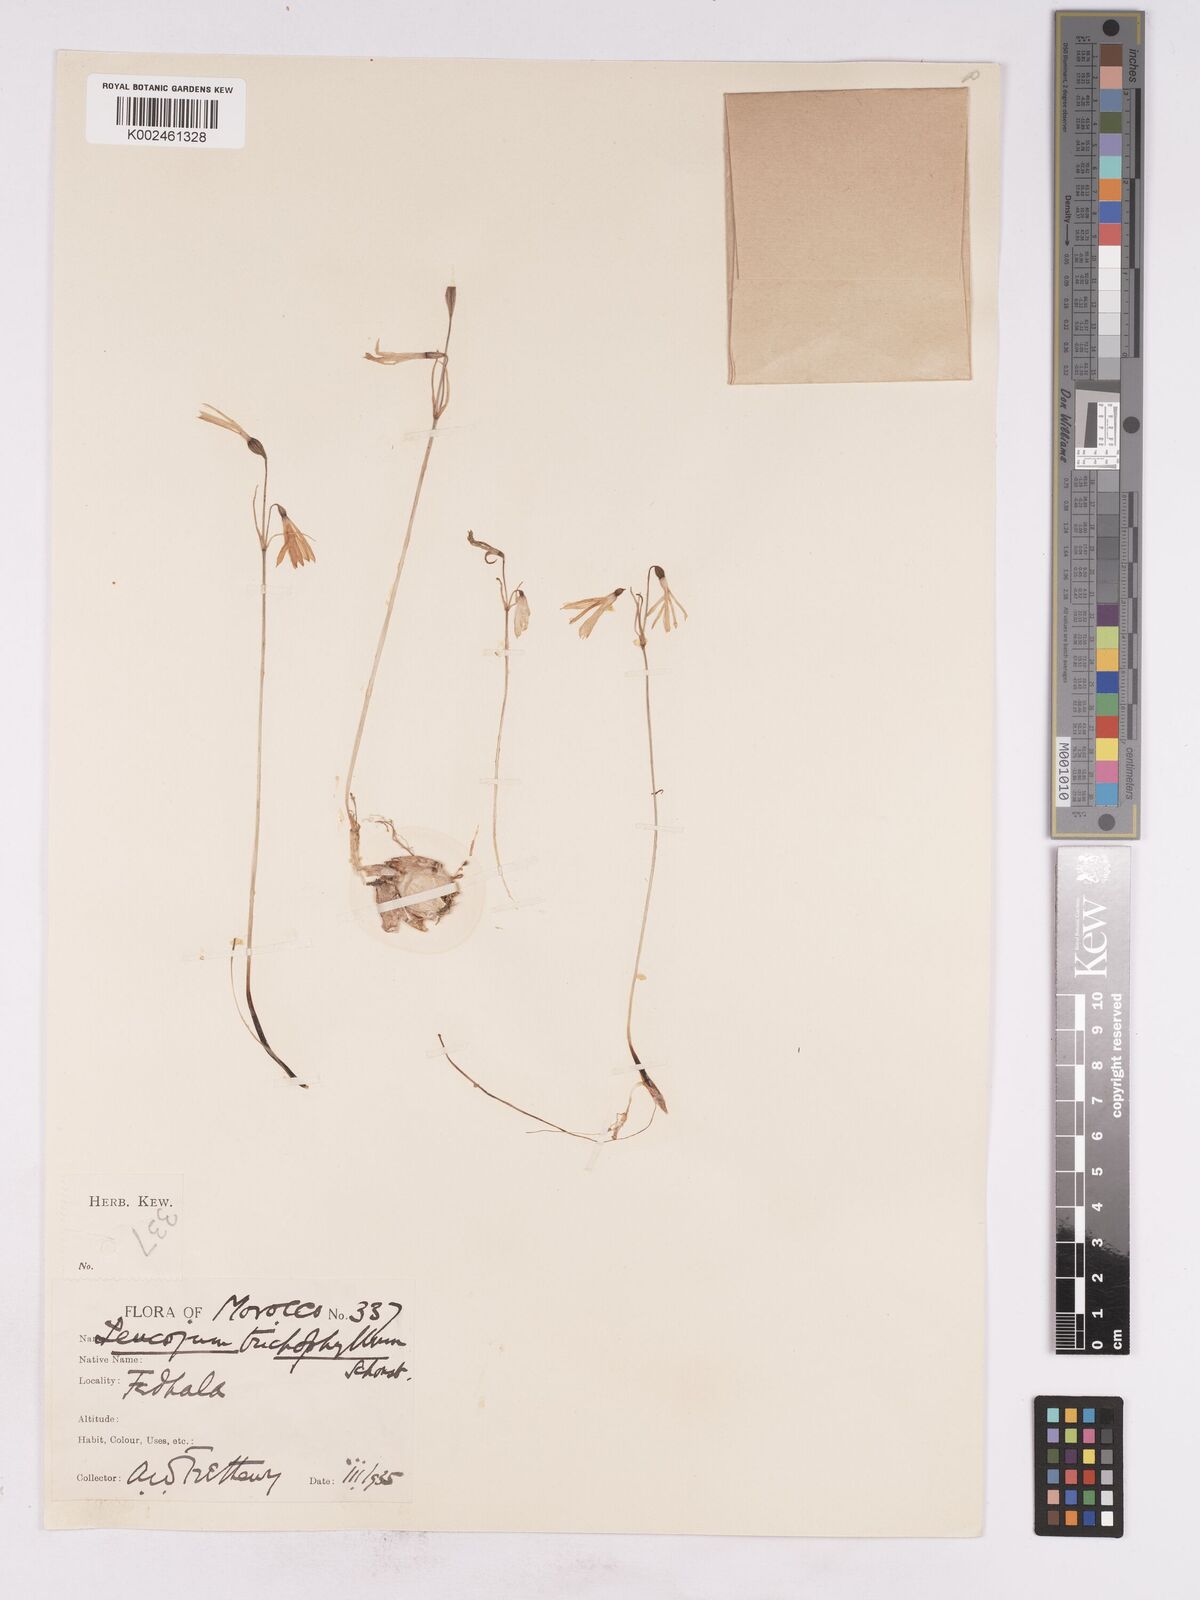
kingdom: Plantae
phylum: Tracheophyta
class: Liliopsida
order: Asparagales
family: Amaryllidaceae
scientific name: Amaryllidaceae
